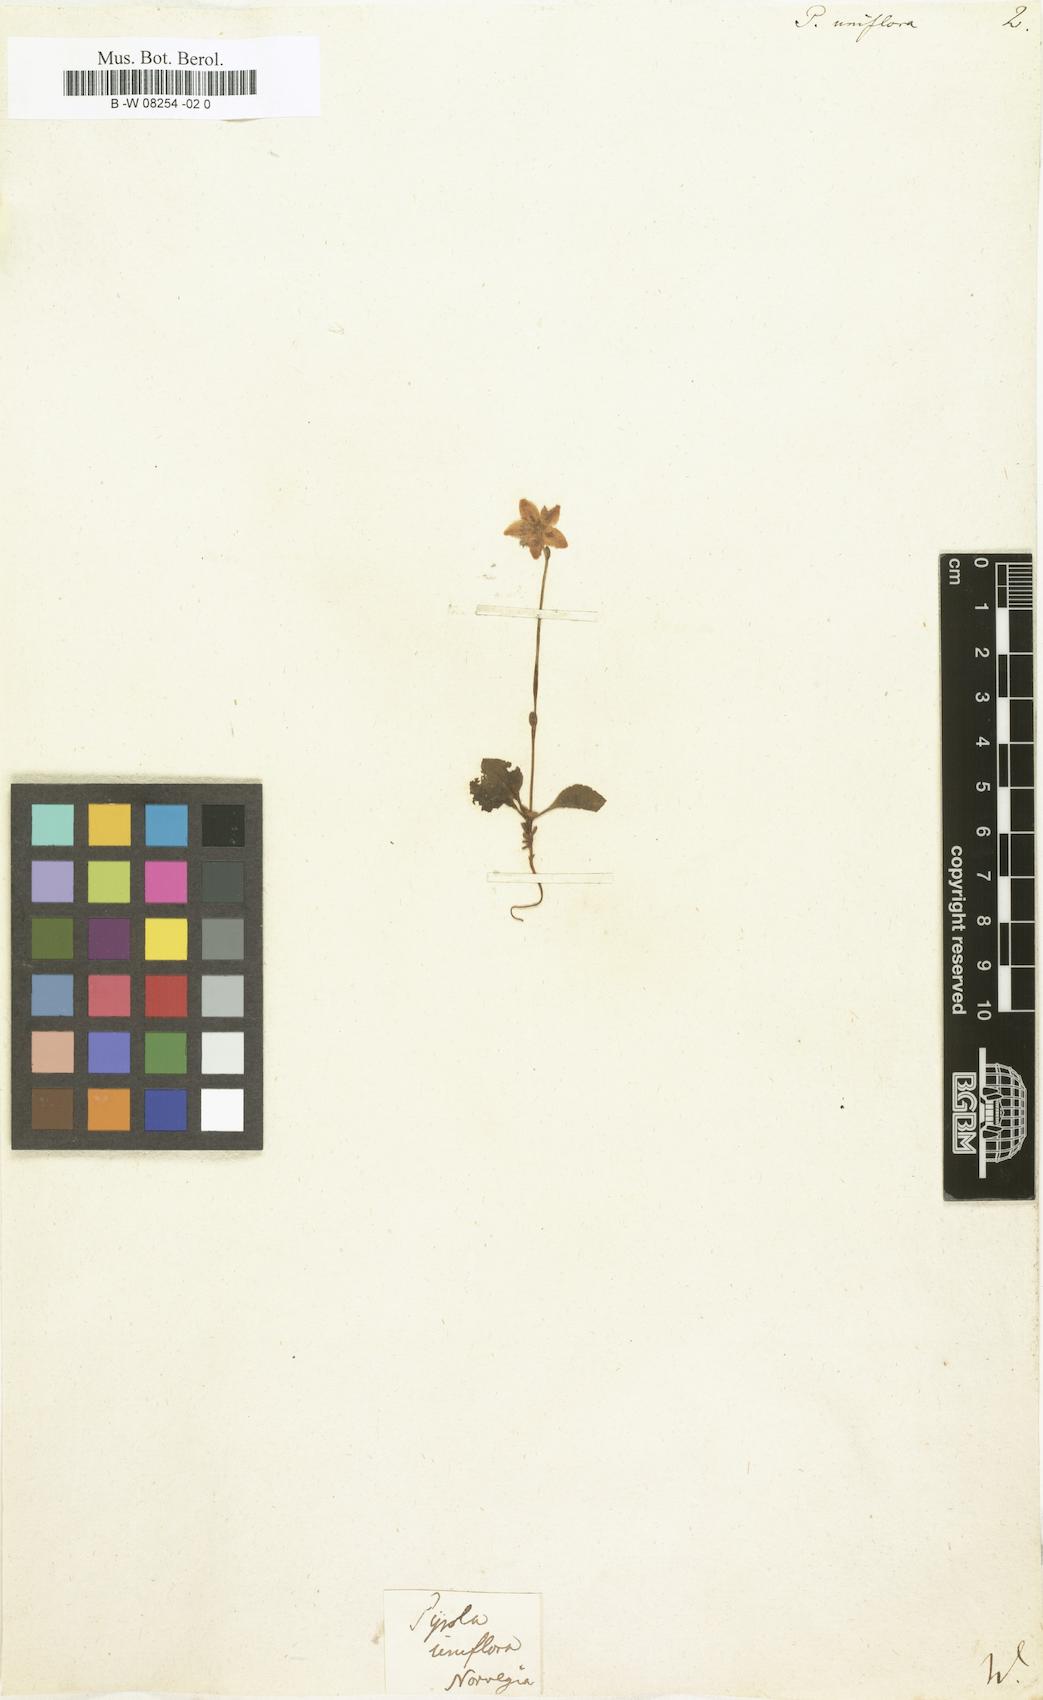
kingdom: Plantae
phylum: Tracheophyta
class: Magnoliopsida
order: Ericales
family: Ericaceae
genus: Moneses
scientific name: Moneses uniflora
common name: One-flowered wintergreen
